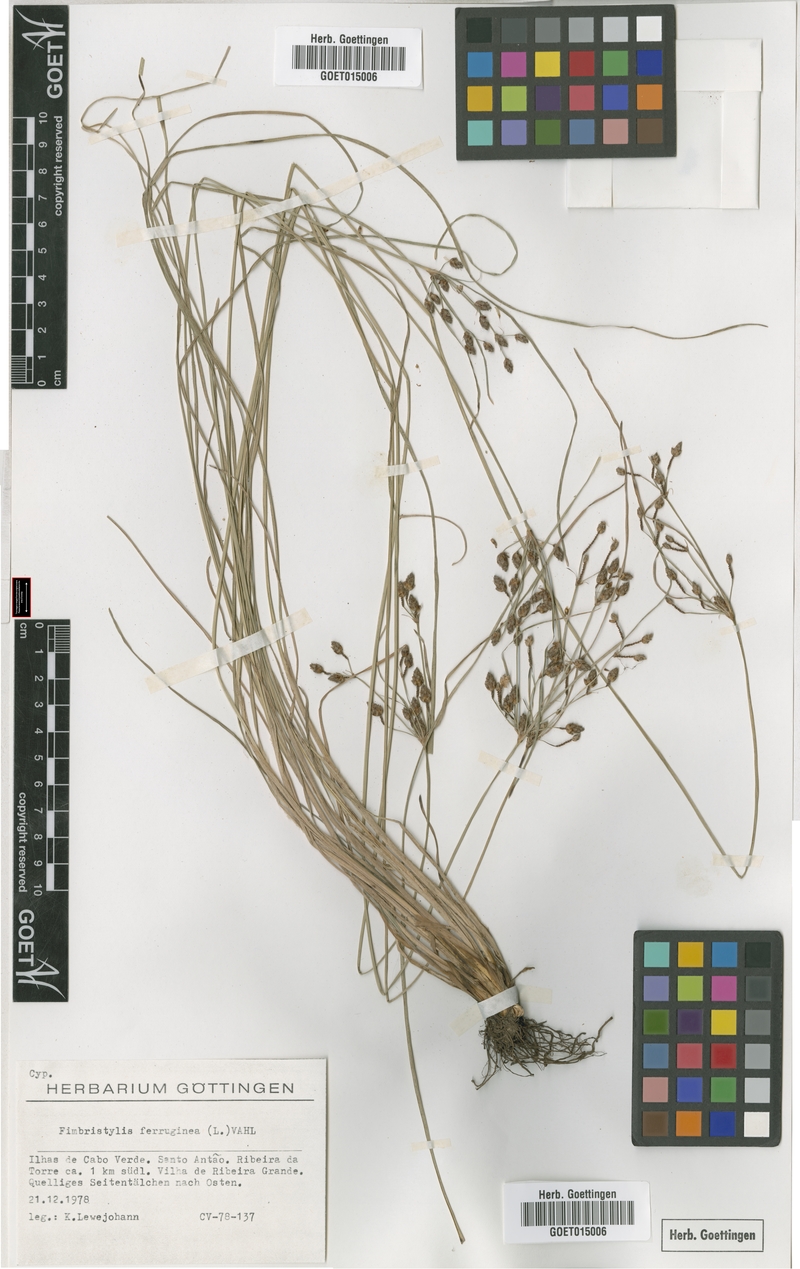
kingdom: Plantae
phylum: Tracheophyta
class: Liliopsida
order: Poales
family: Cyperaceae
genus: Fimbristylis
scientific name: Fimbristylis ferruginea
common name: West indian fimbry
